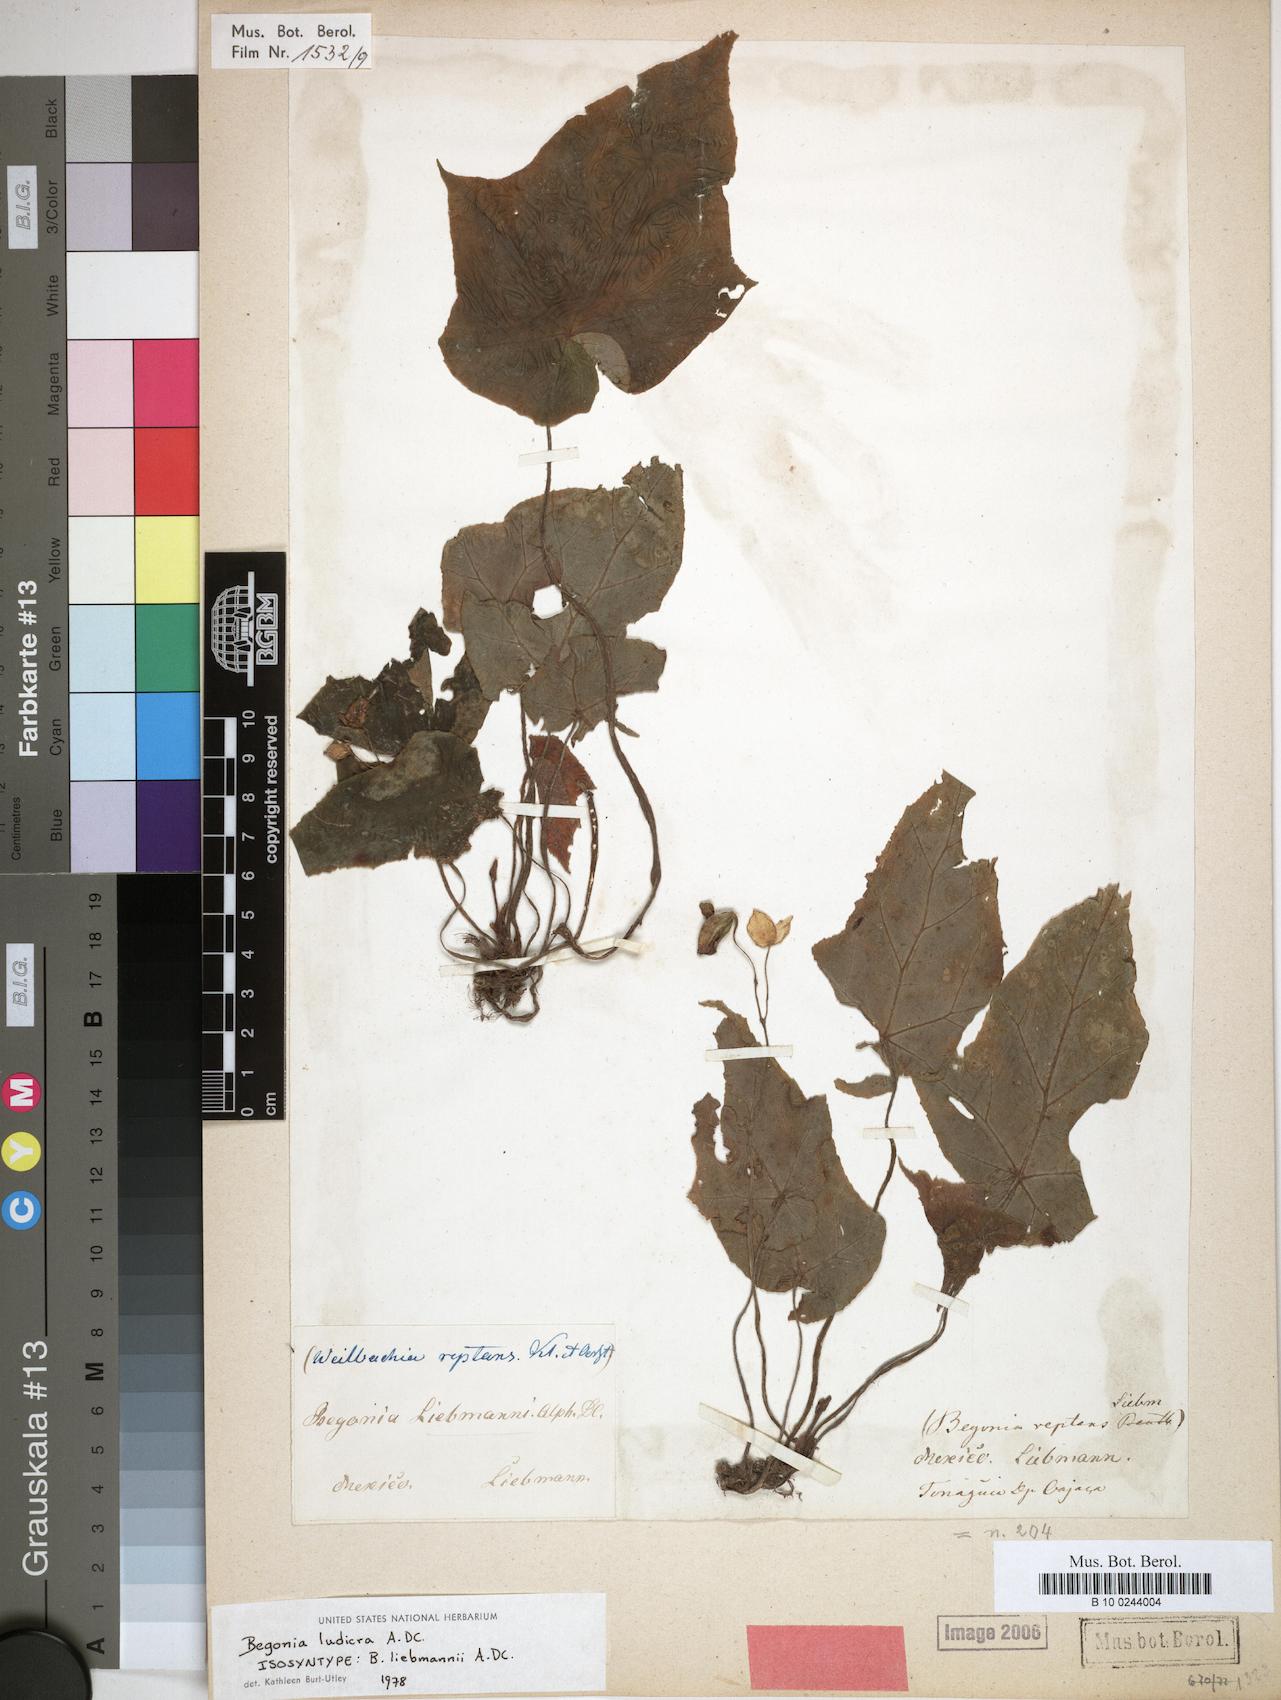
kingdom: Plantae
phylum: Tracheophyta
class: Magnoliopsida
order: Cucurbitales
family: Begoniaceae
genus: Begonia
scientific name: Begonia ludicra
